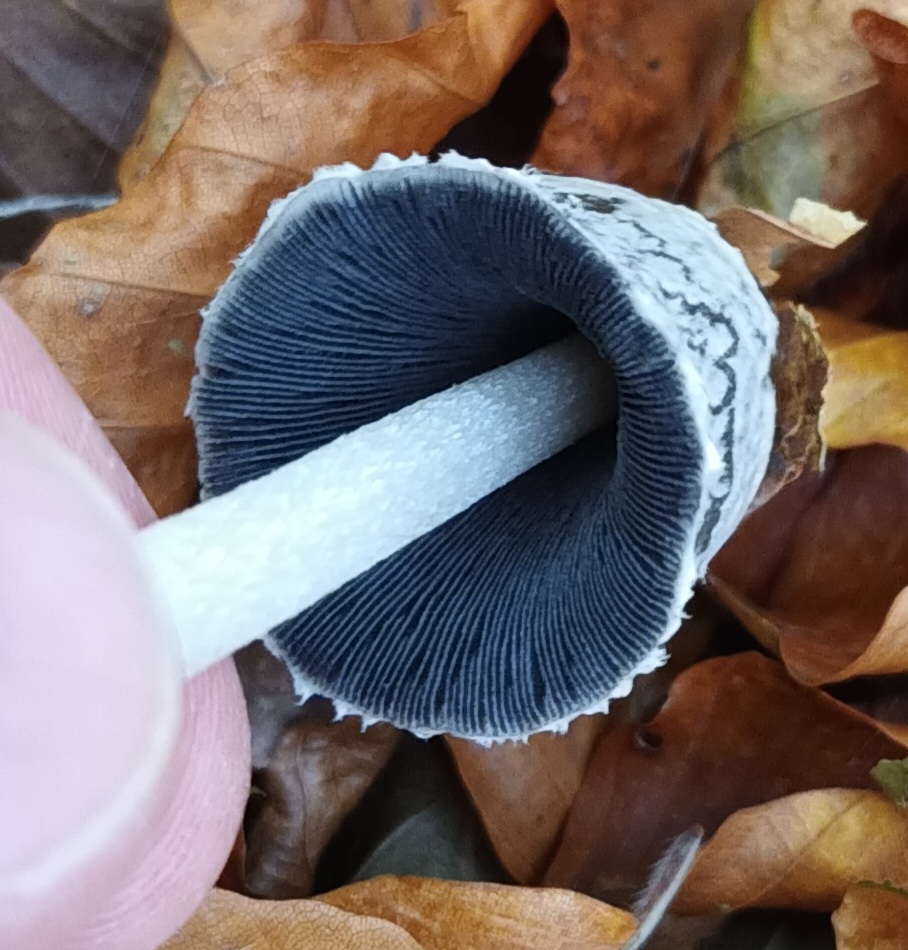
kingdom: Fungi
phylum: Basidiomycota
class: Agaricomycetes
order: Agaricales
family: Psathyrellaceae
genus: Coprinopsis
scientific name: Coprinopsis picacea
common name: Skade-blækhat
